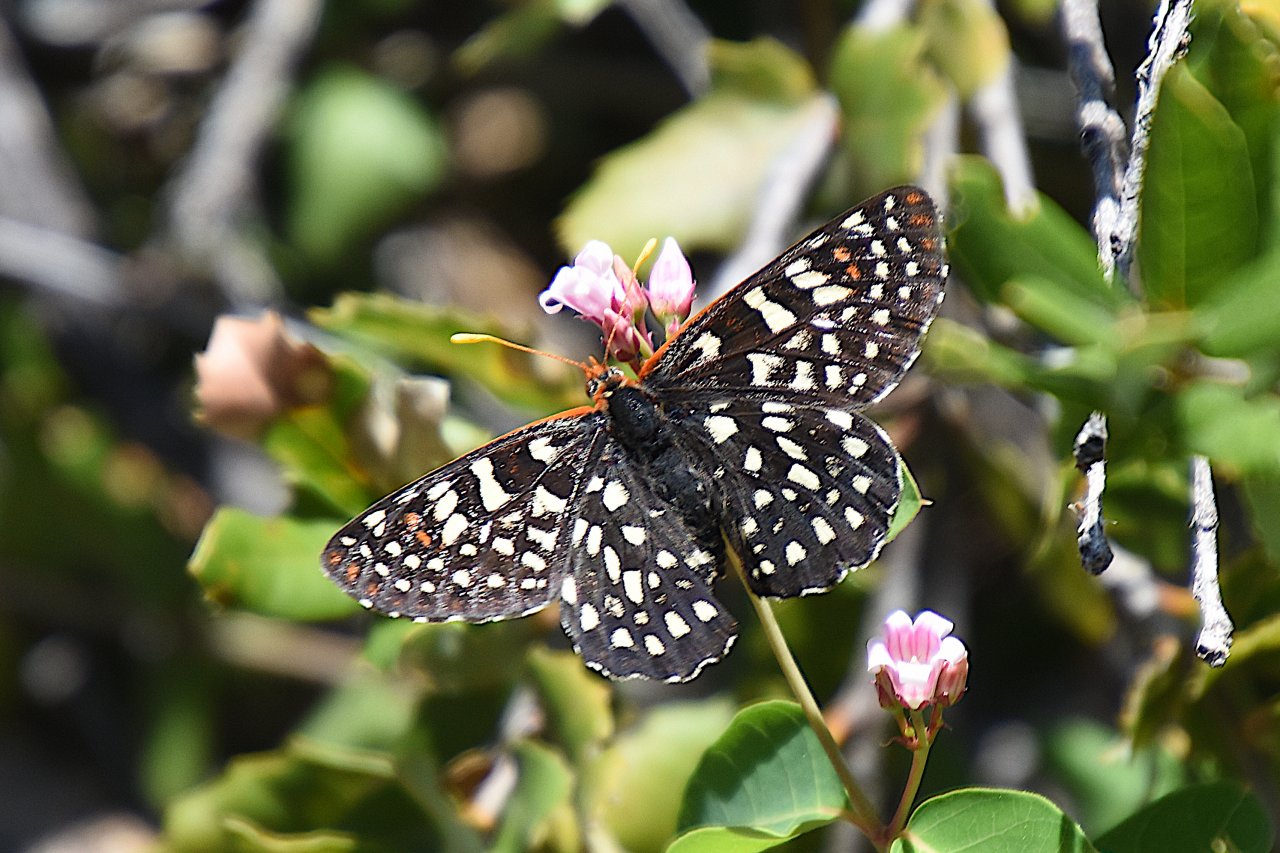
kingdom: Animalia
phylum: Arthropoda
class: Insecta
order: Lepidoptera
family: Nymphalidae
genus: Occidryas
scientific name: Occidryas colon
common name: Snowberry Checkerspot
